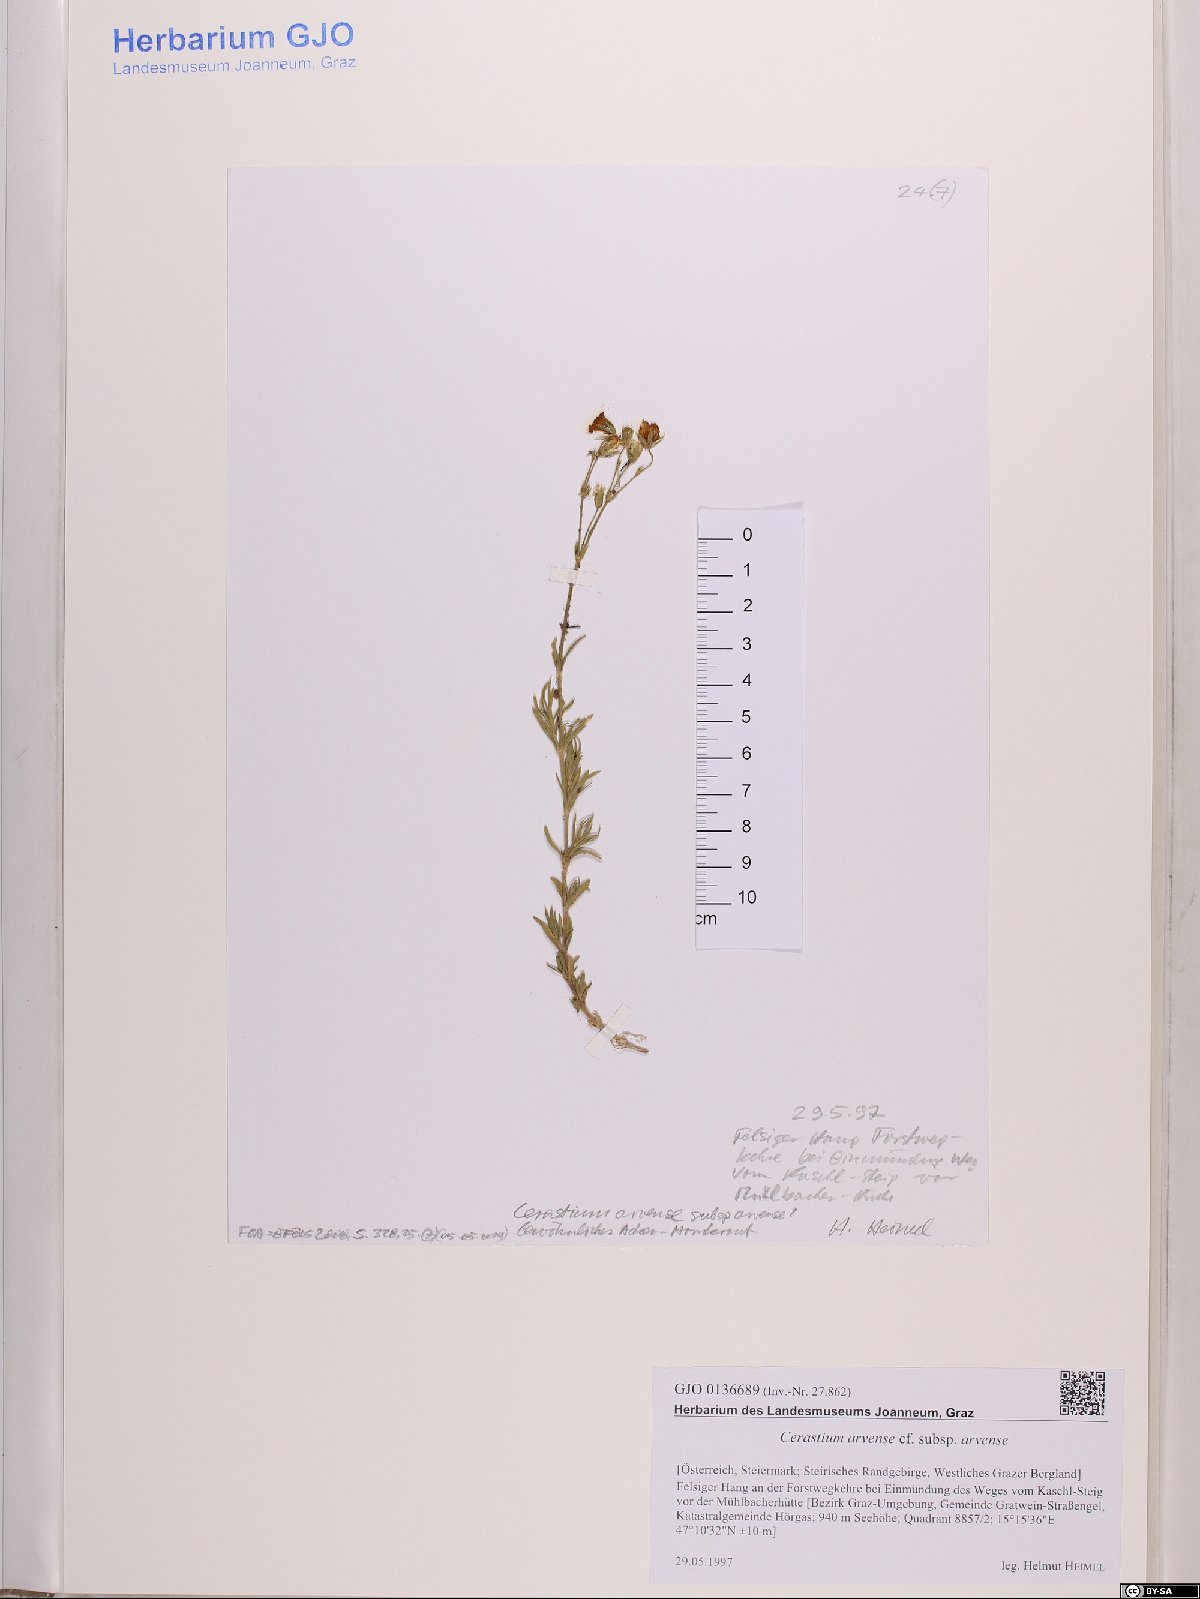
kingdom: Plantae
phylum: Tracheophyta
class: Magnoliopsida
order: Caryophyllales
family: Caryophyllaceae
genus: Cerastium
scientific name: Cerastium arvense
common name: Field mouse-ear
